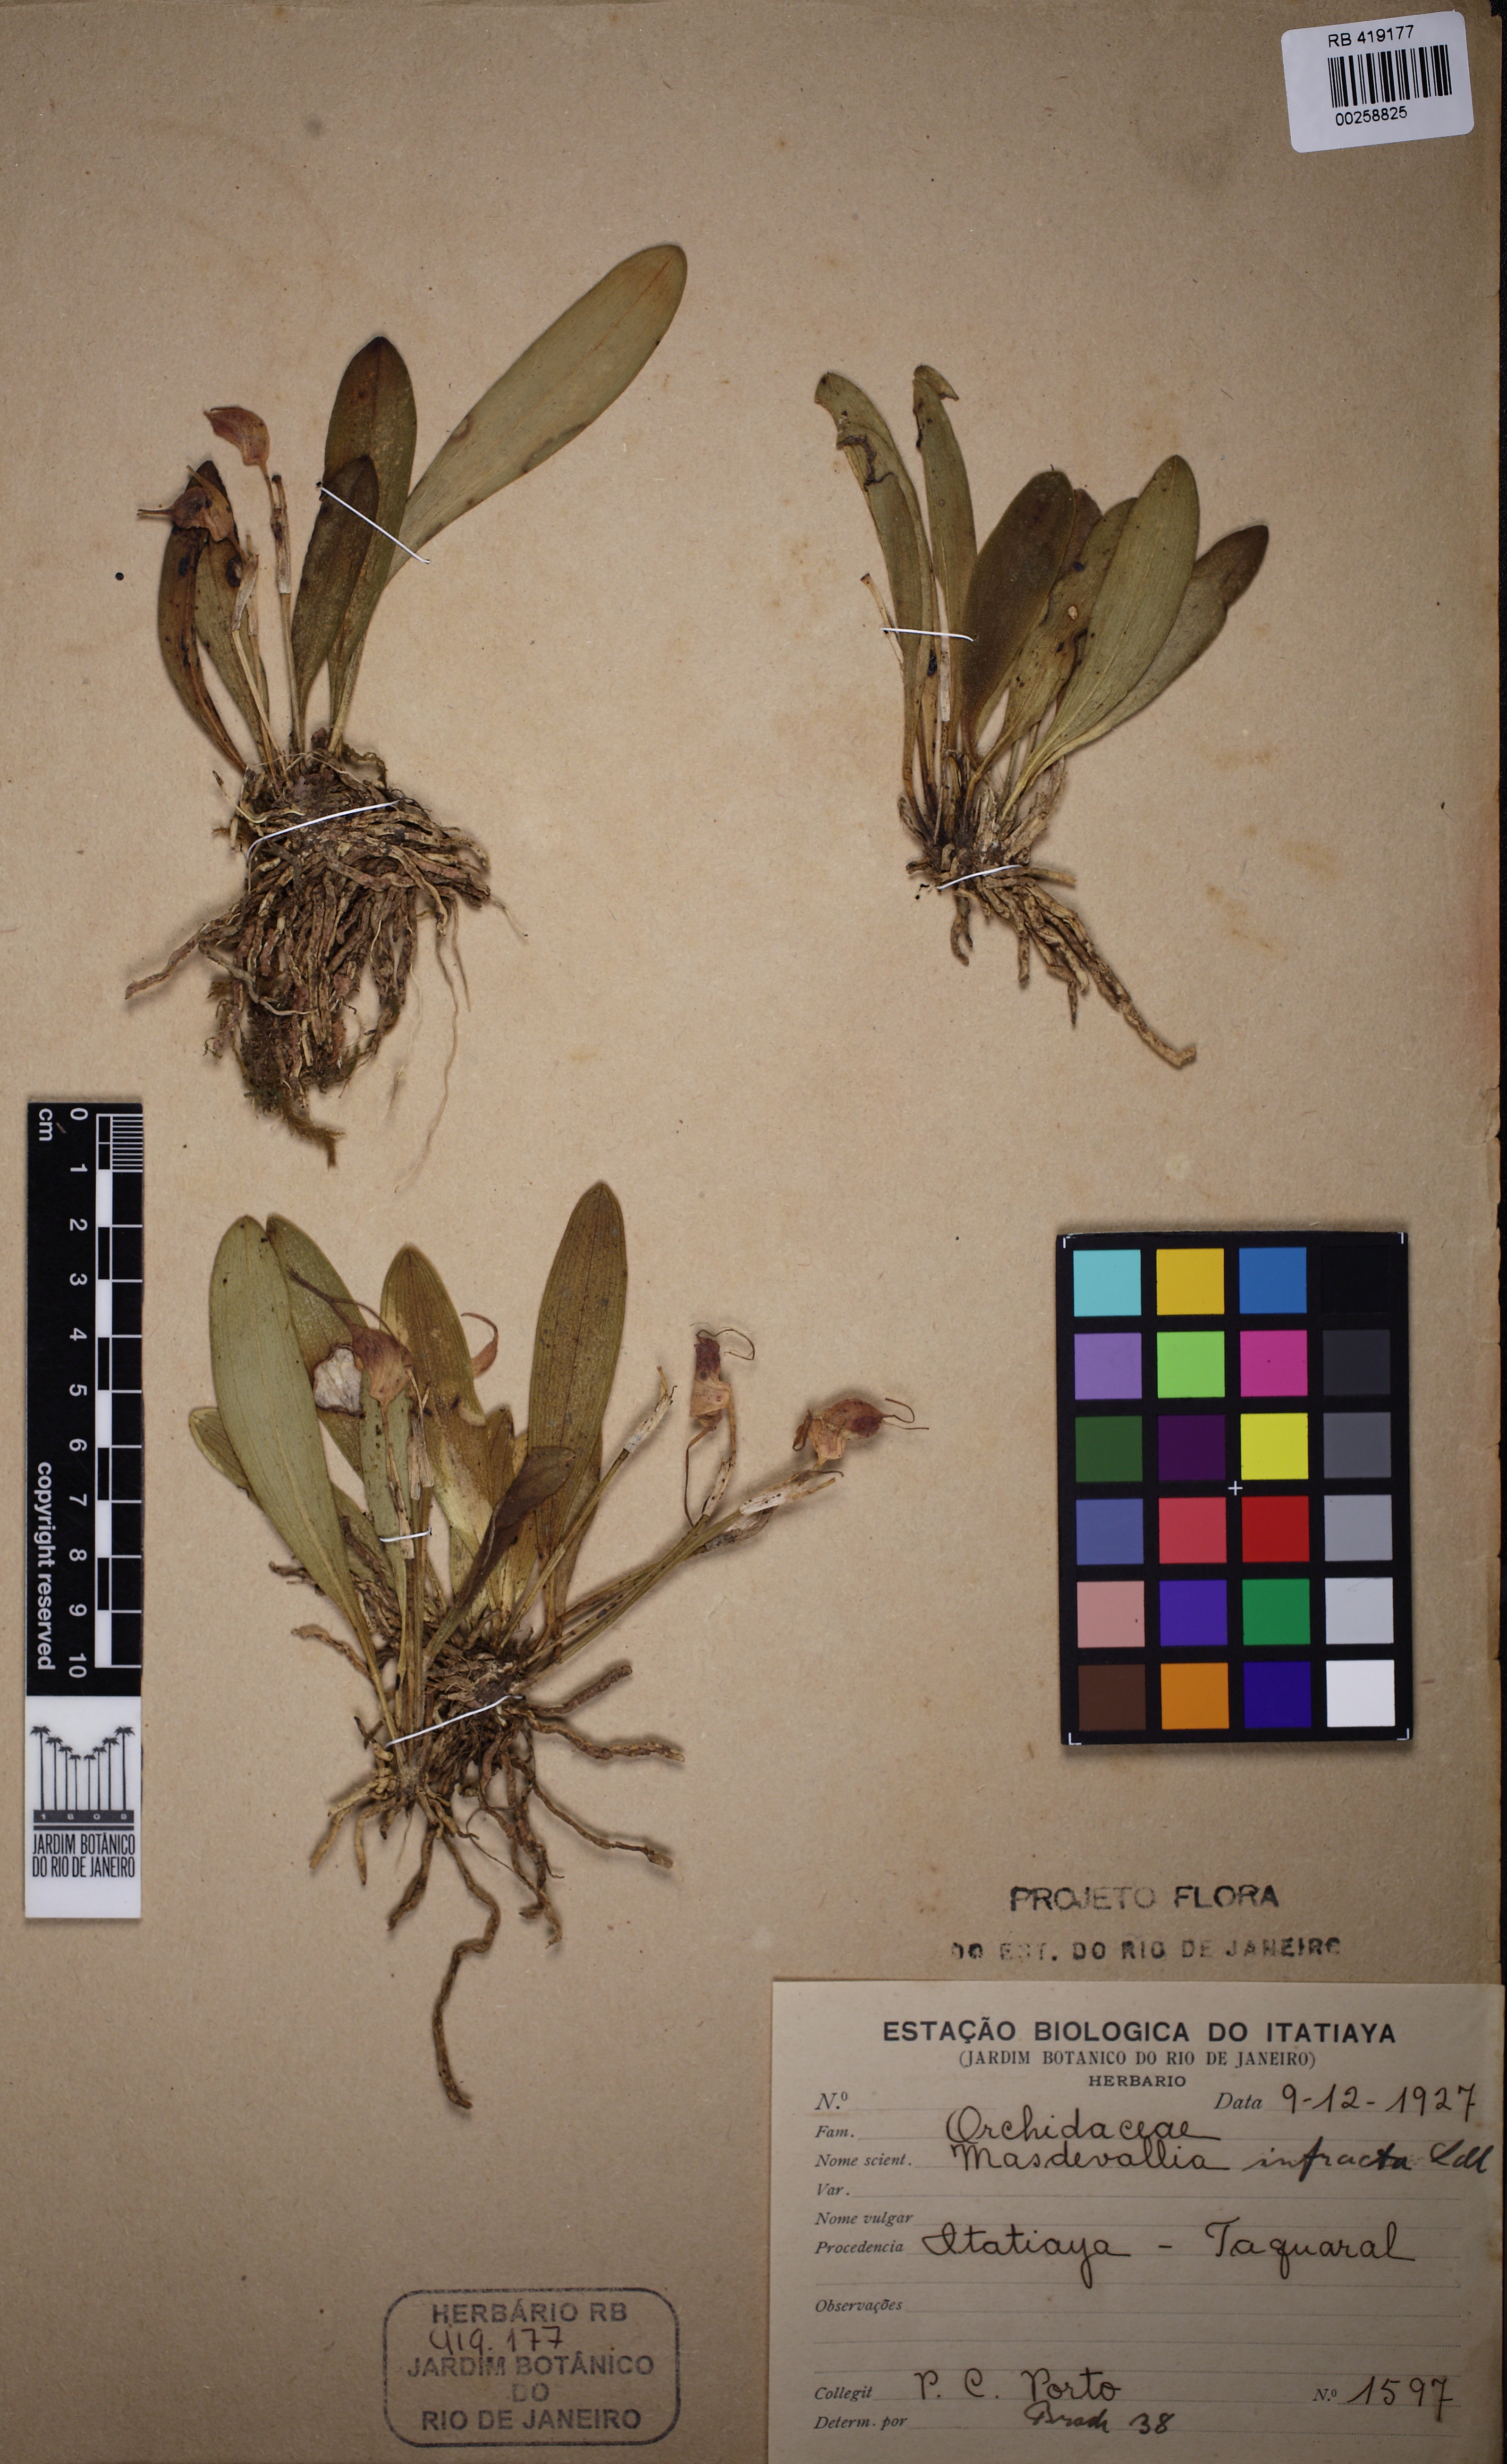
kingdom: Plantae
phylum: Tracheophyta
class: Liliopsida
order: Asparagales
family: Orchidaceae
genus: Masdevallia
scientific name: Masdevallia infracta
